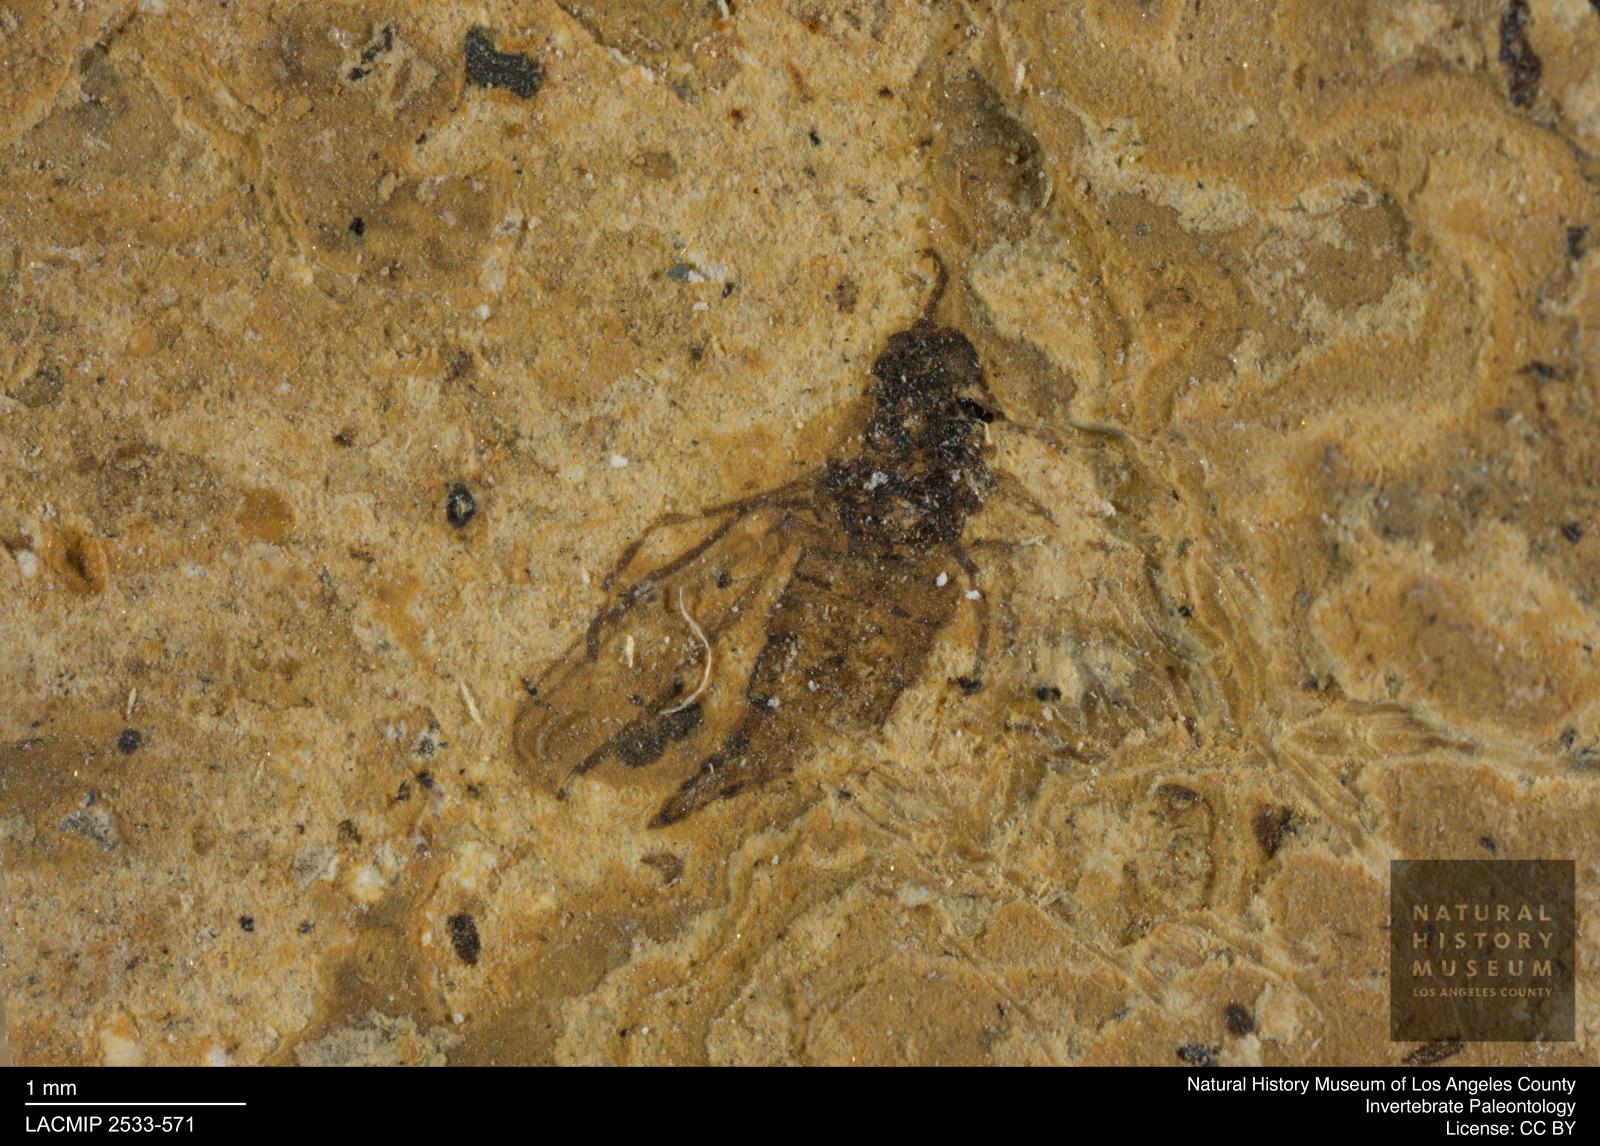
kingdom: Animalia
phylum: Arthropoda
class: Insecta
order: Diptera
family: Sciaridae
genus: Sciara
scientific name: Sciara Lycoria bicolora
